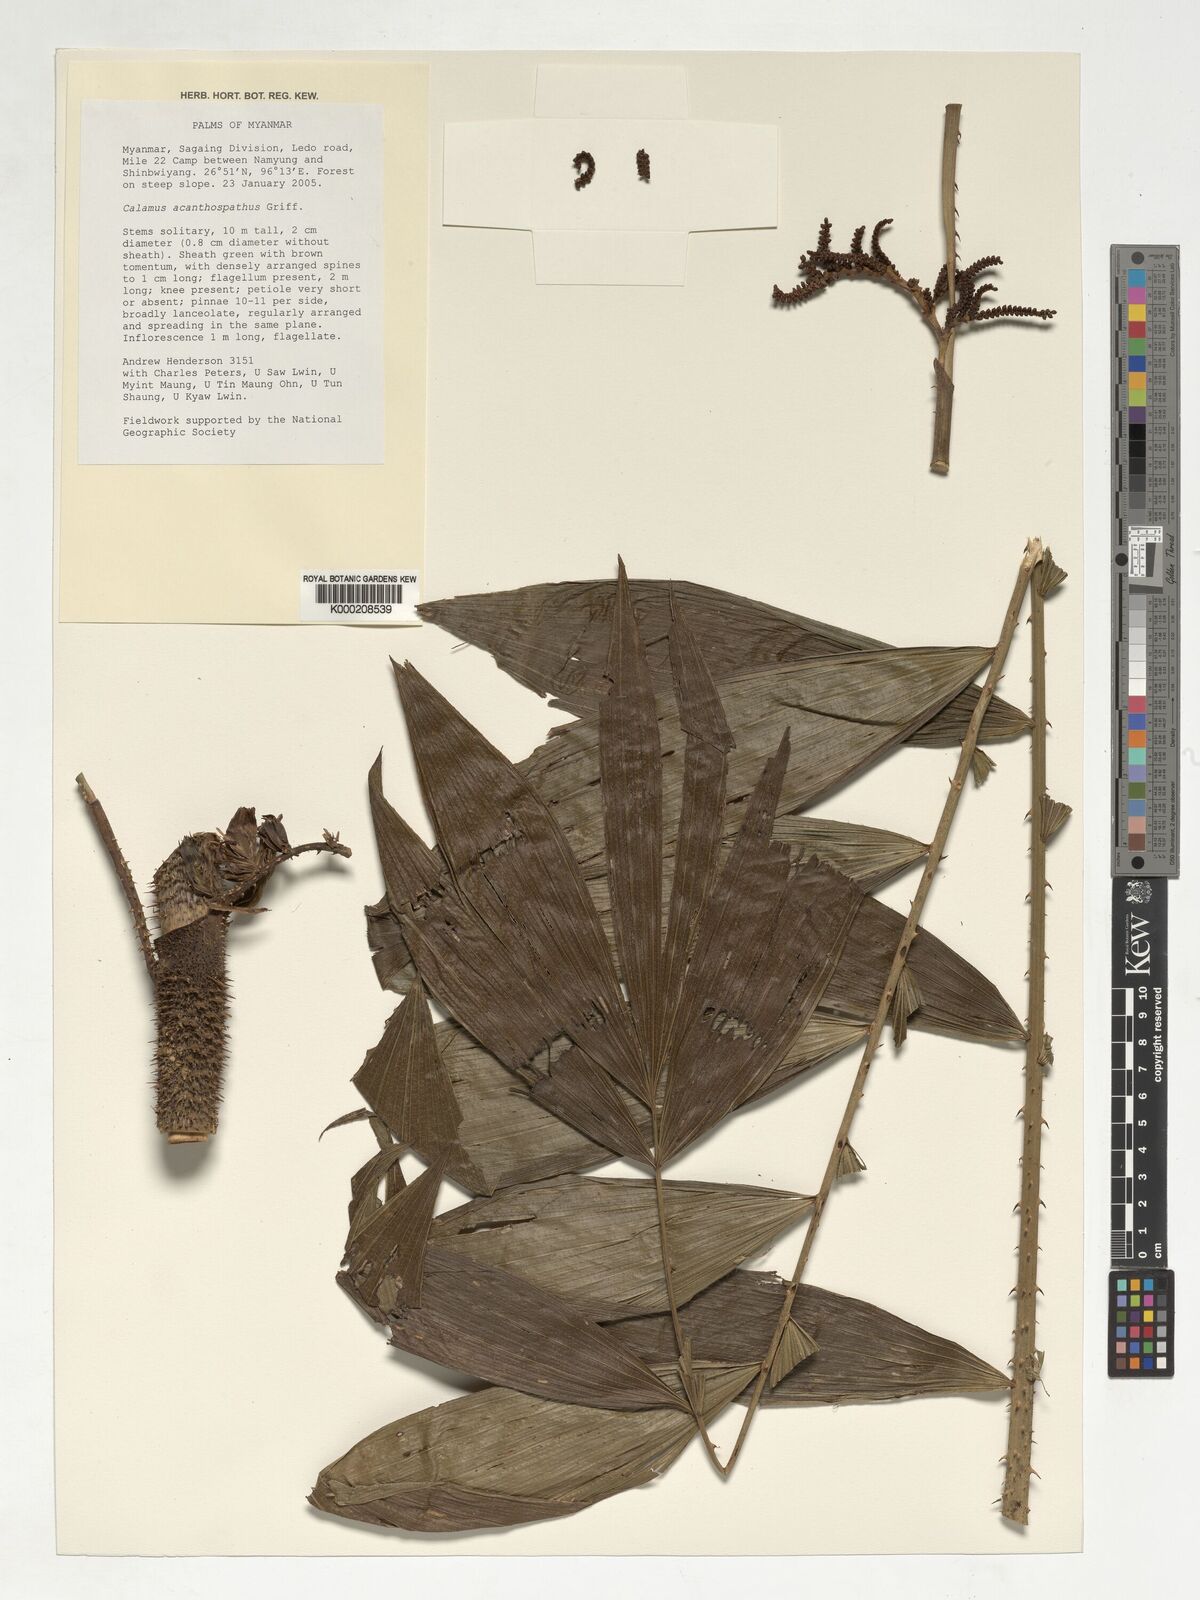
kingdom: Plantae
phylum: Tracheophyta
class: Liliopsida
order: Arecales
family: Arecaceae
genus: Calamus
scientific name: Calamus acanthospathus
